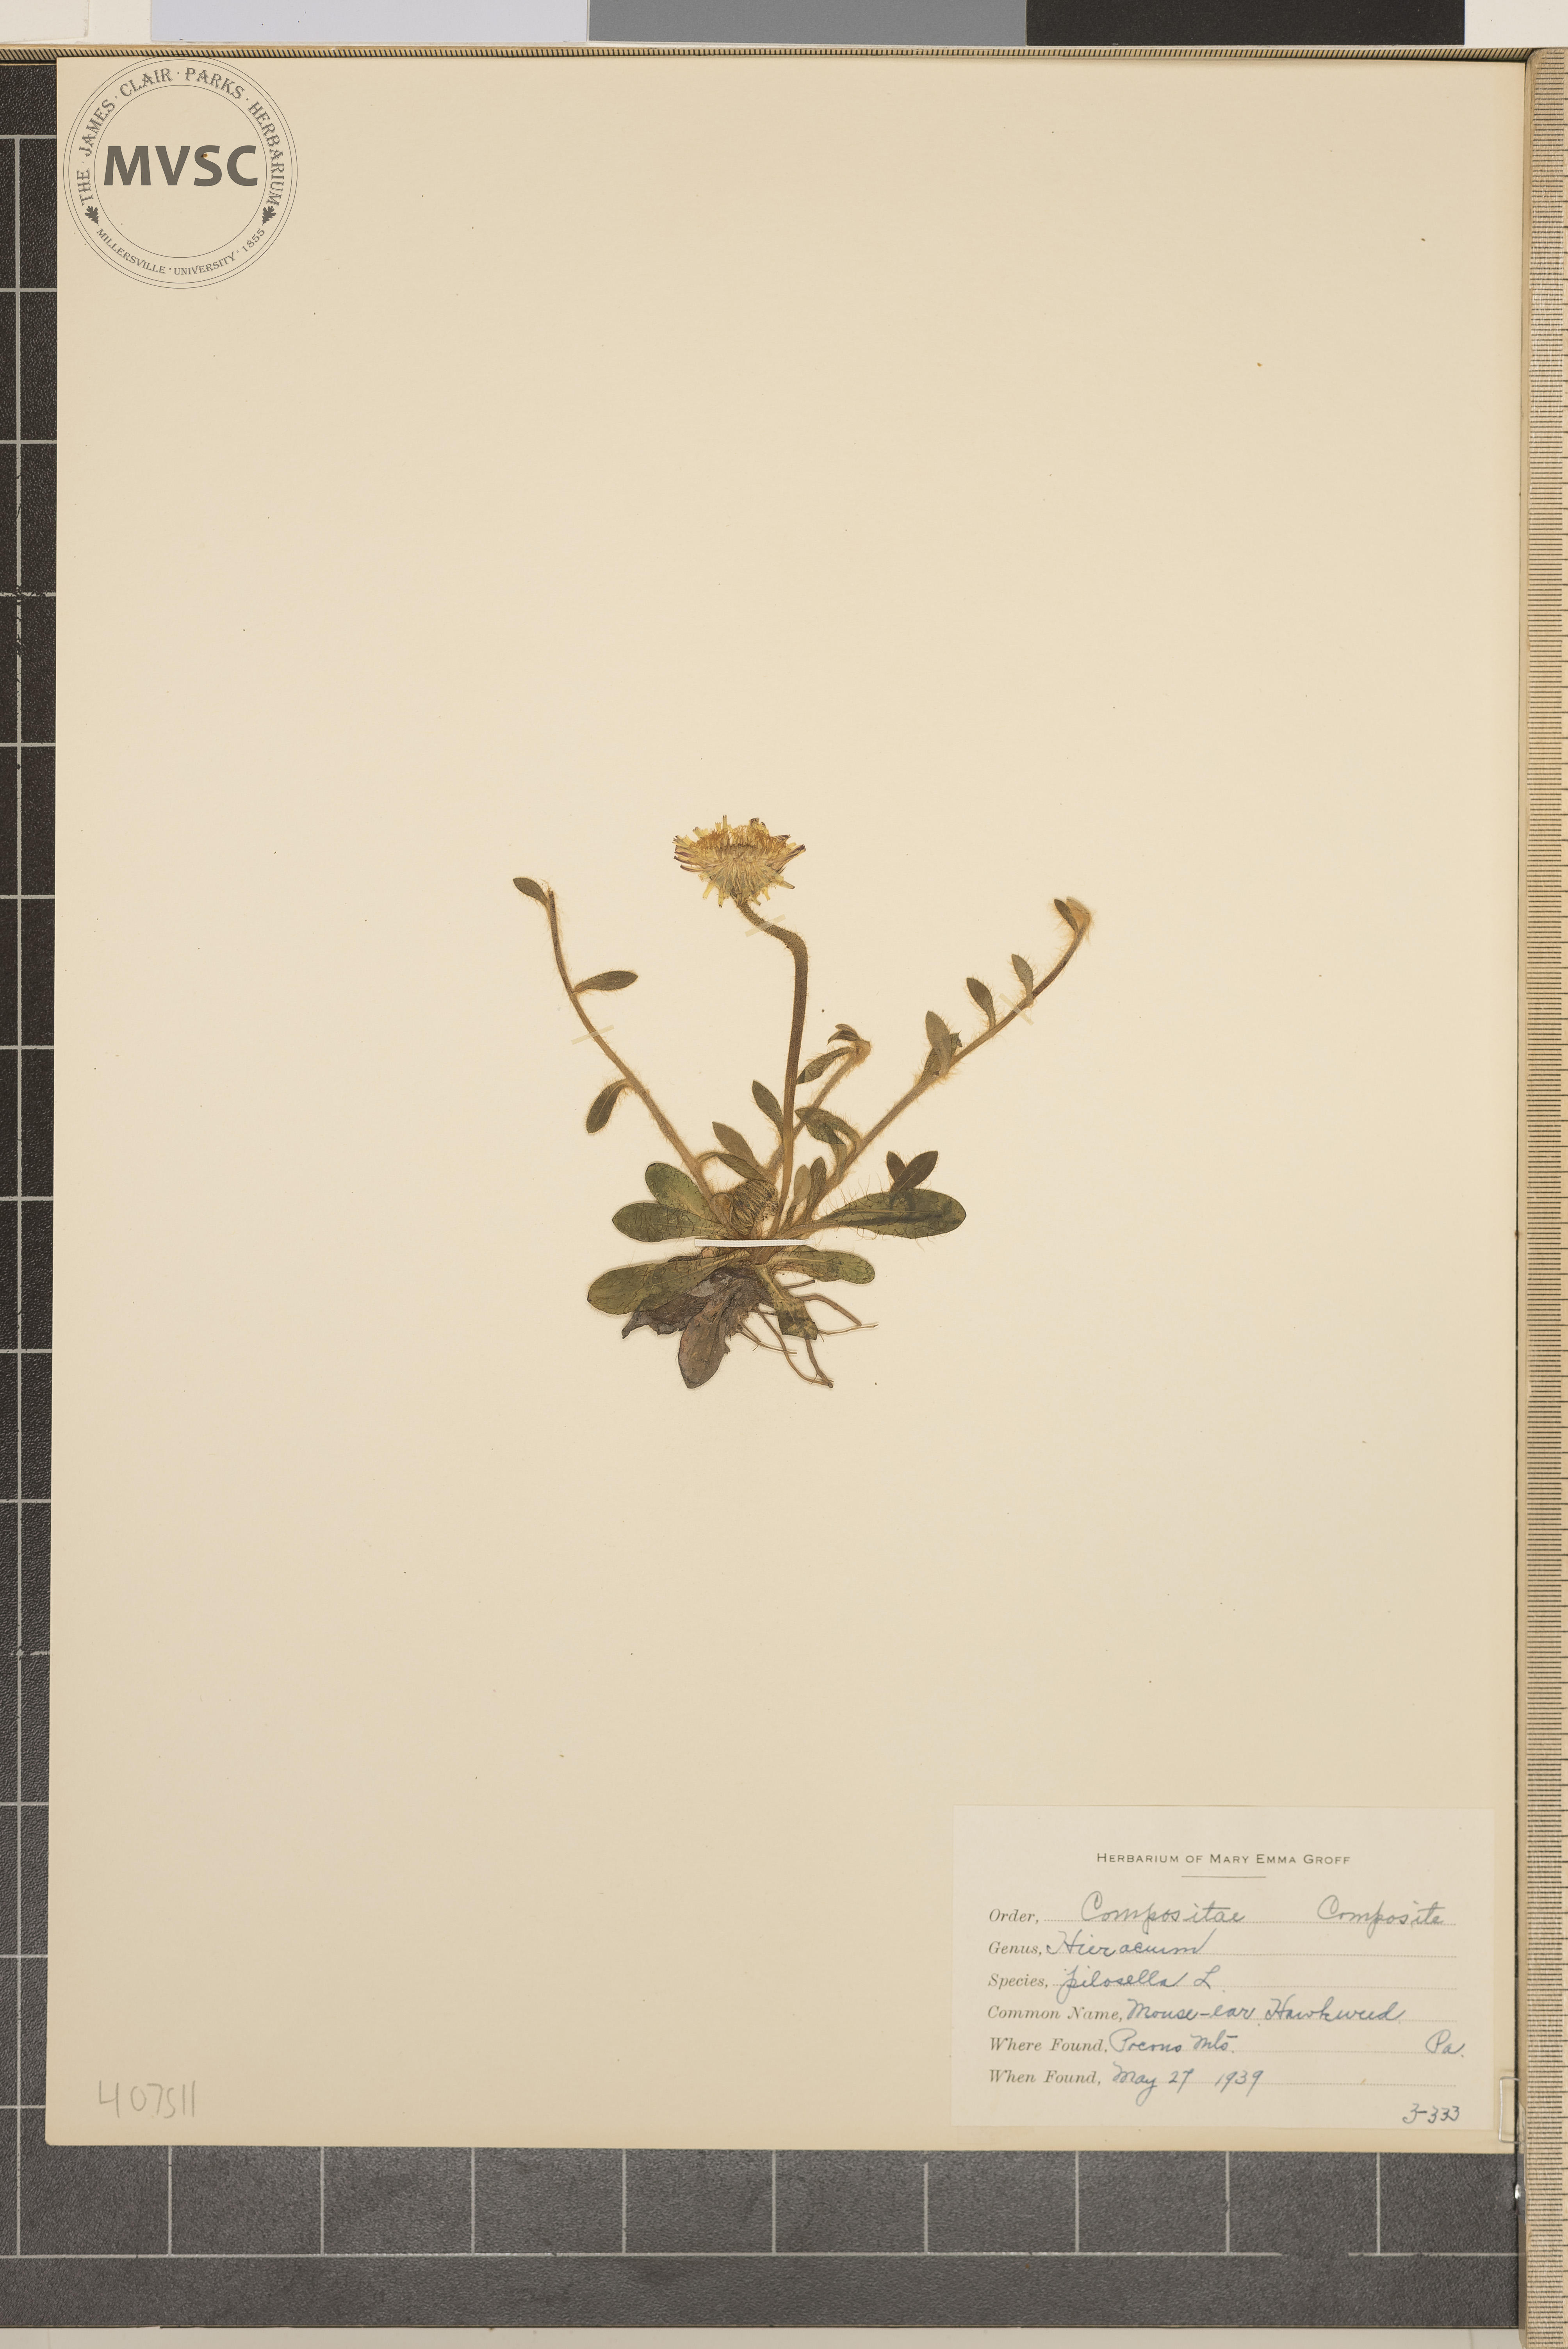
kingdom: Plantae
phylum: Tracheophyta
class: Magnoliopsida
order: Asterales
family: Asteraceae
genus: Pilosella
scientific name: Pilosella officinarum
